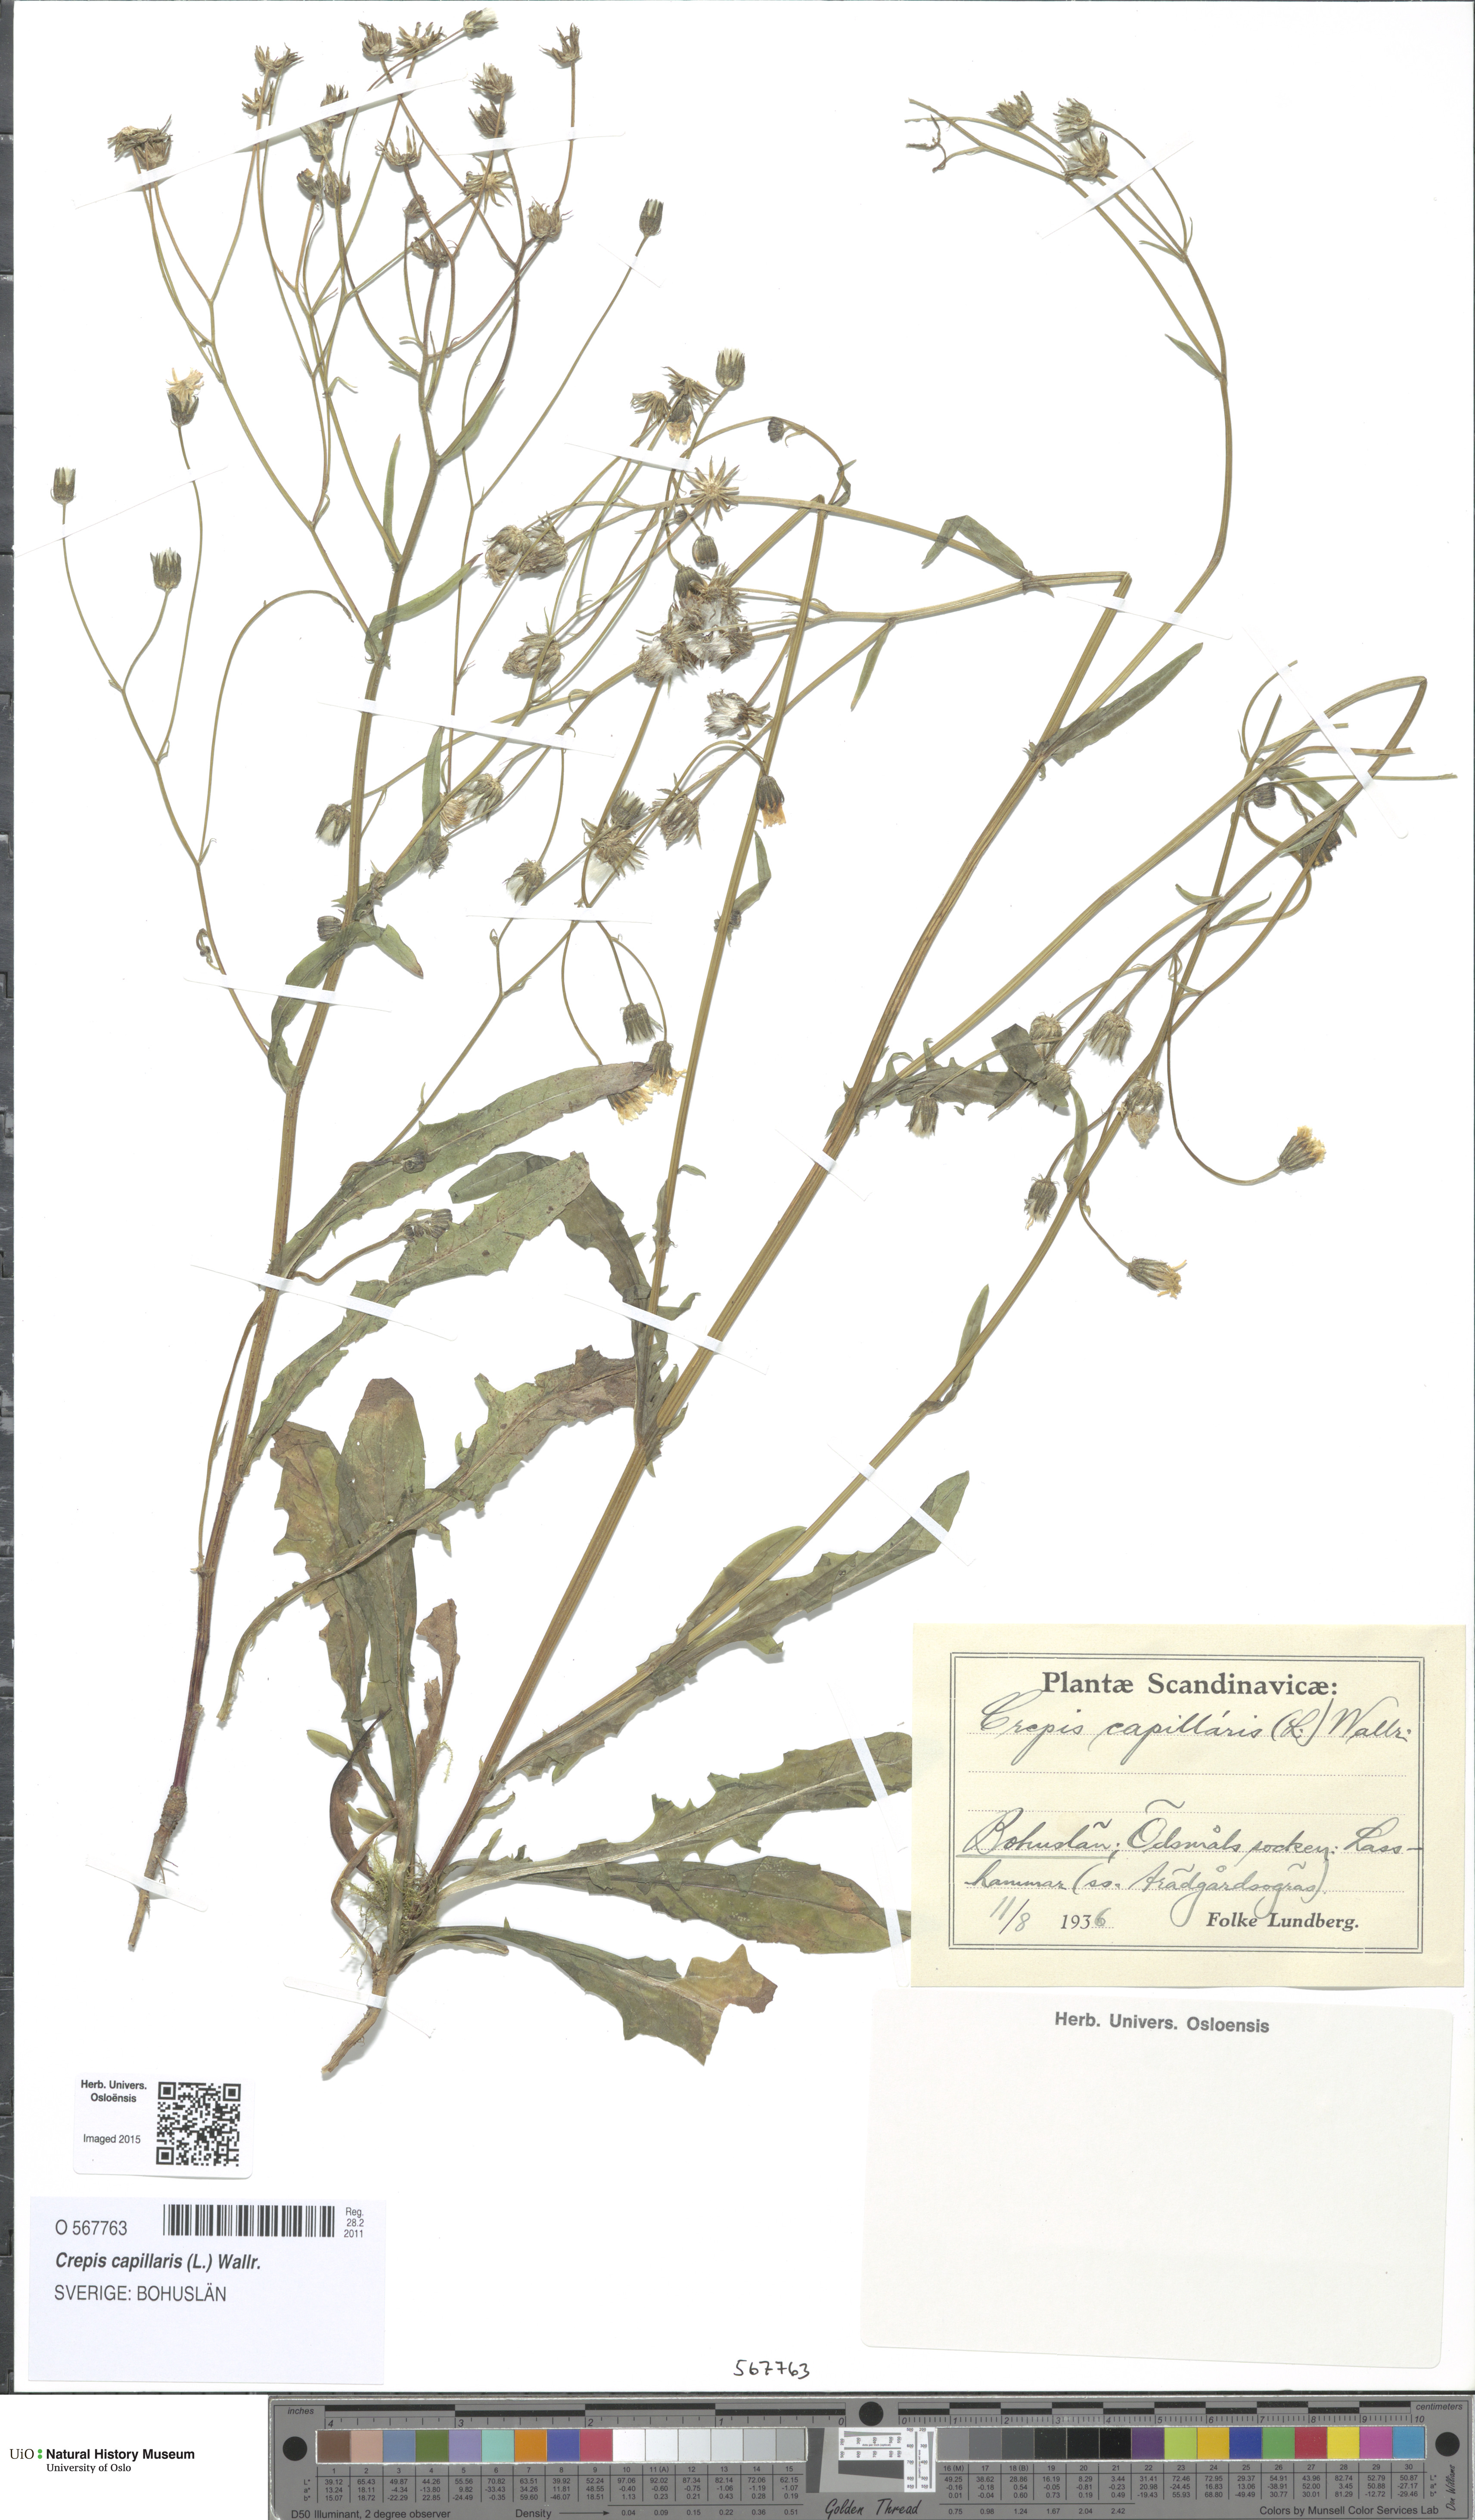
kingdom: Plantae
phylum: Tracheophyta
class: Magnoliopsida
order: Asterales
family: Asteraceae
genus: Crepis
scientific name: Crepis capillaris
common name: Smooth hawksbeard
